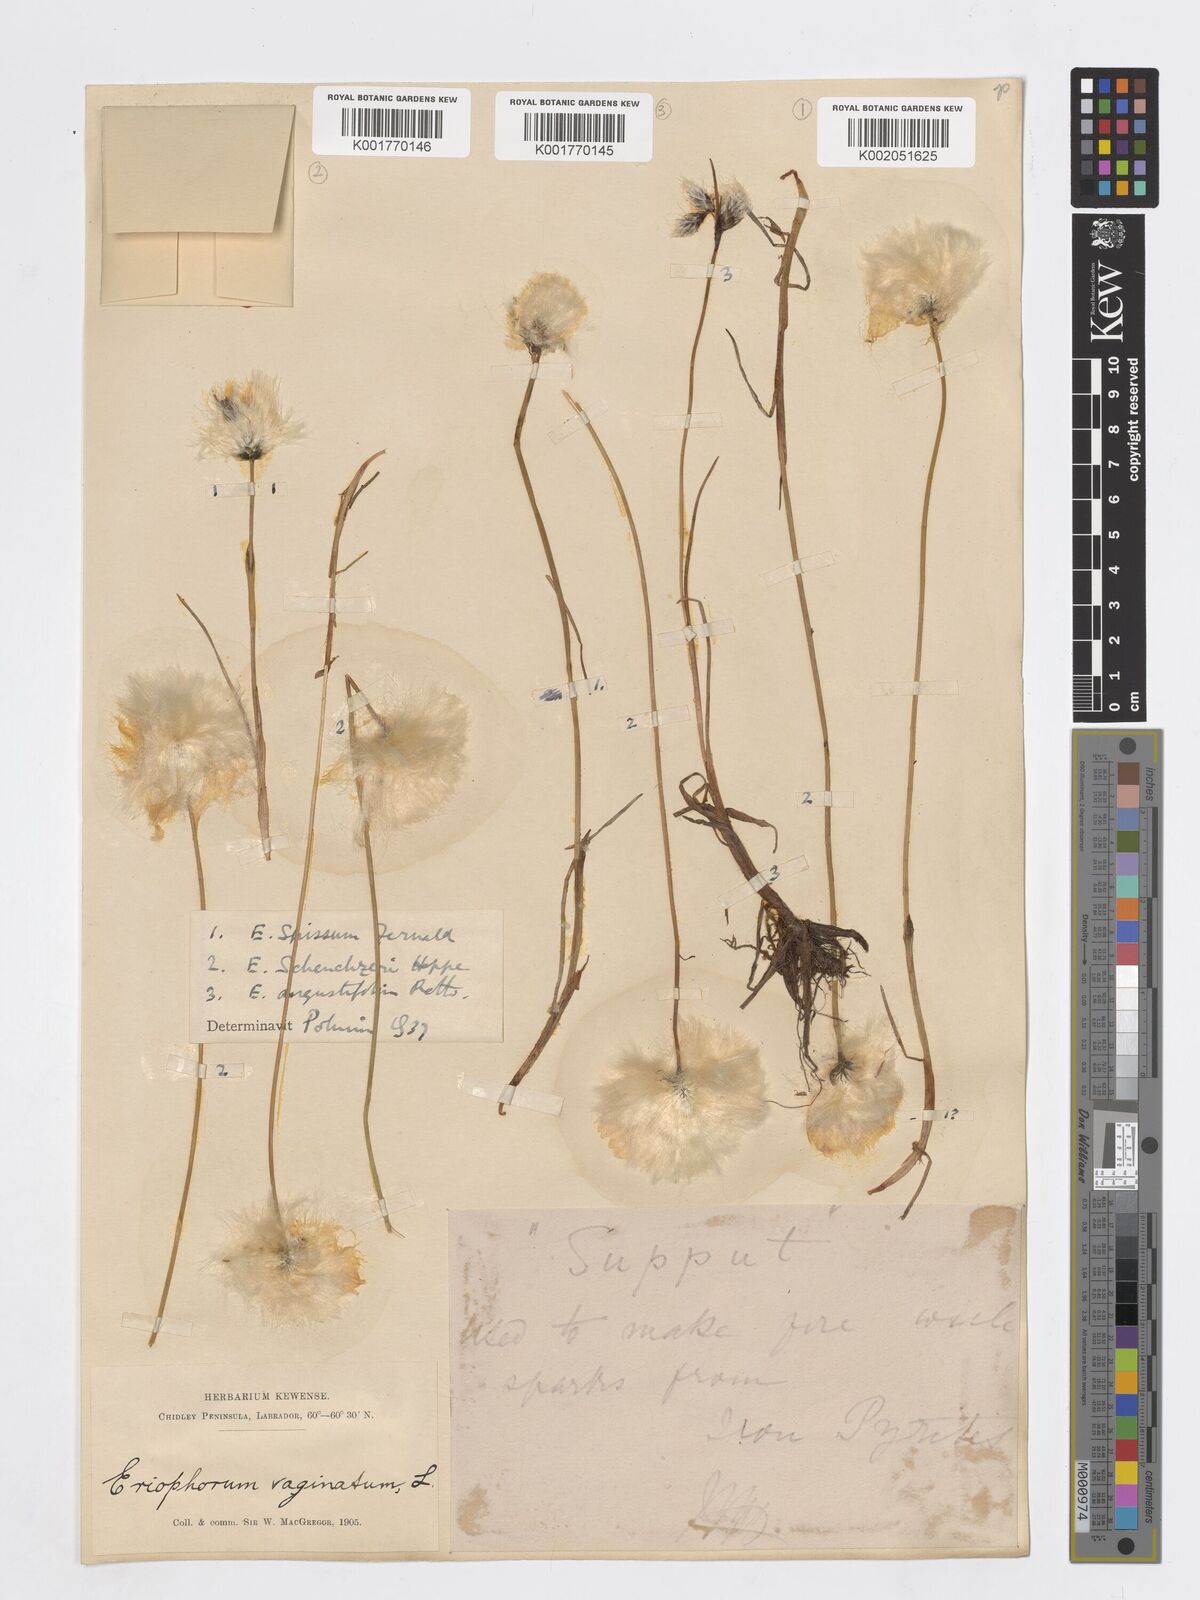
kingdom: Plantae
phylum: Tracheophyta
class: Liliopsida
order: Poales
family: Cyperaceae
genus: Eriophorum
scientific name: Eriophorum scheuchzeri
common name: Scheuchzer's cottongrass
